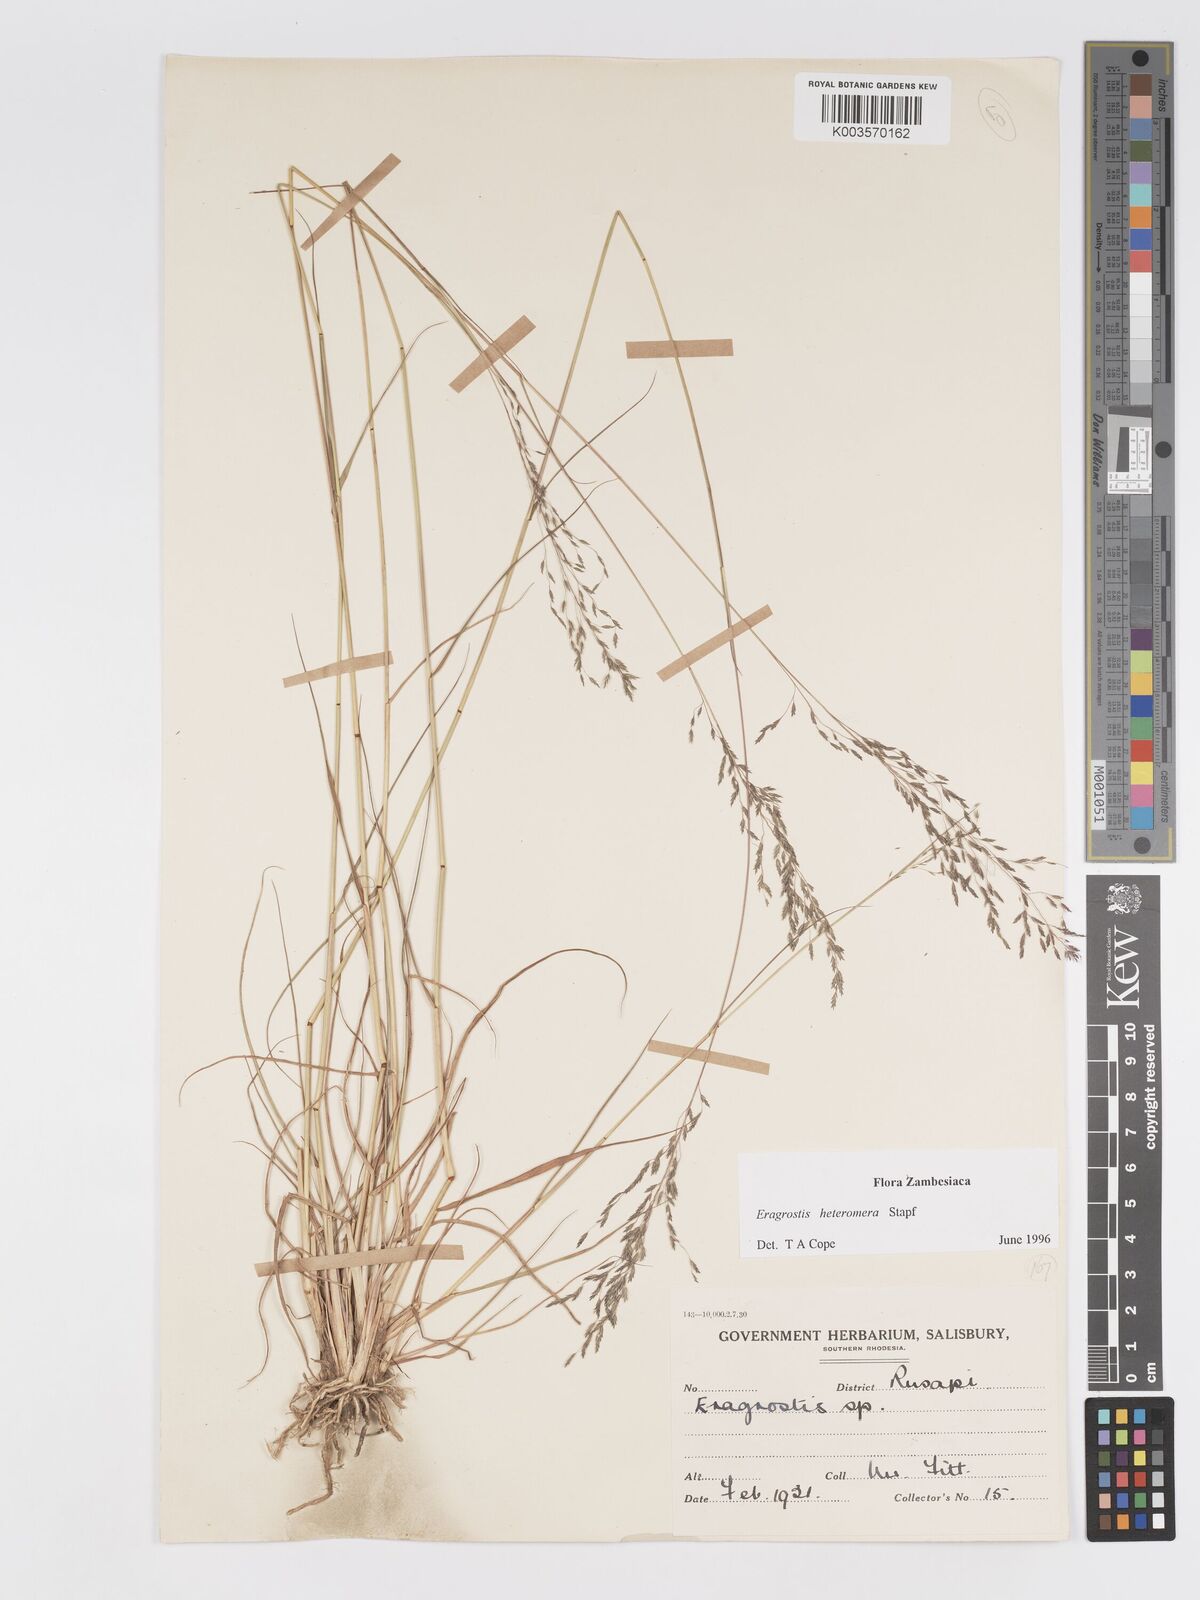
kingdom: Plantae
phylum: Tracheophyta
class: Liliopsida
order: Poales
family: Poaceae
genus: Eragrostis
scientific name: Eragrostis heteromera
